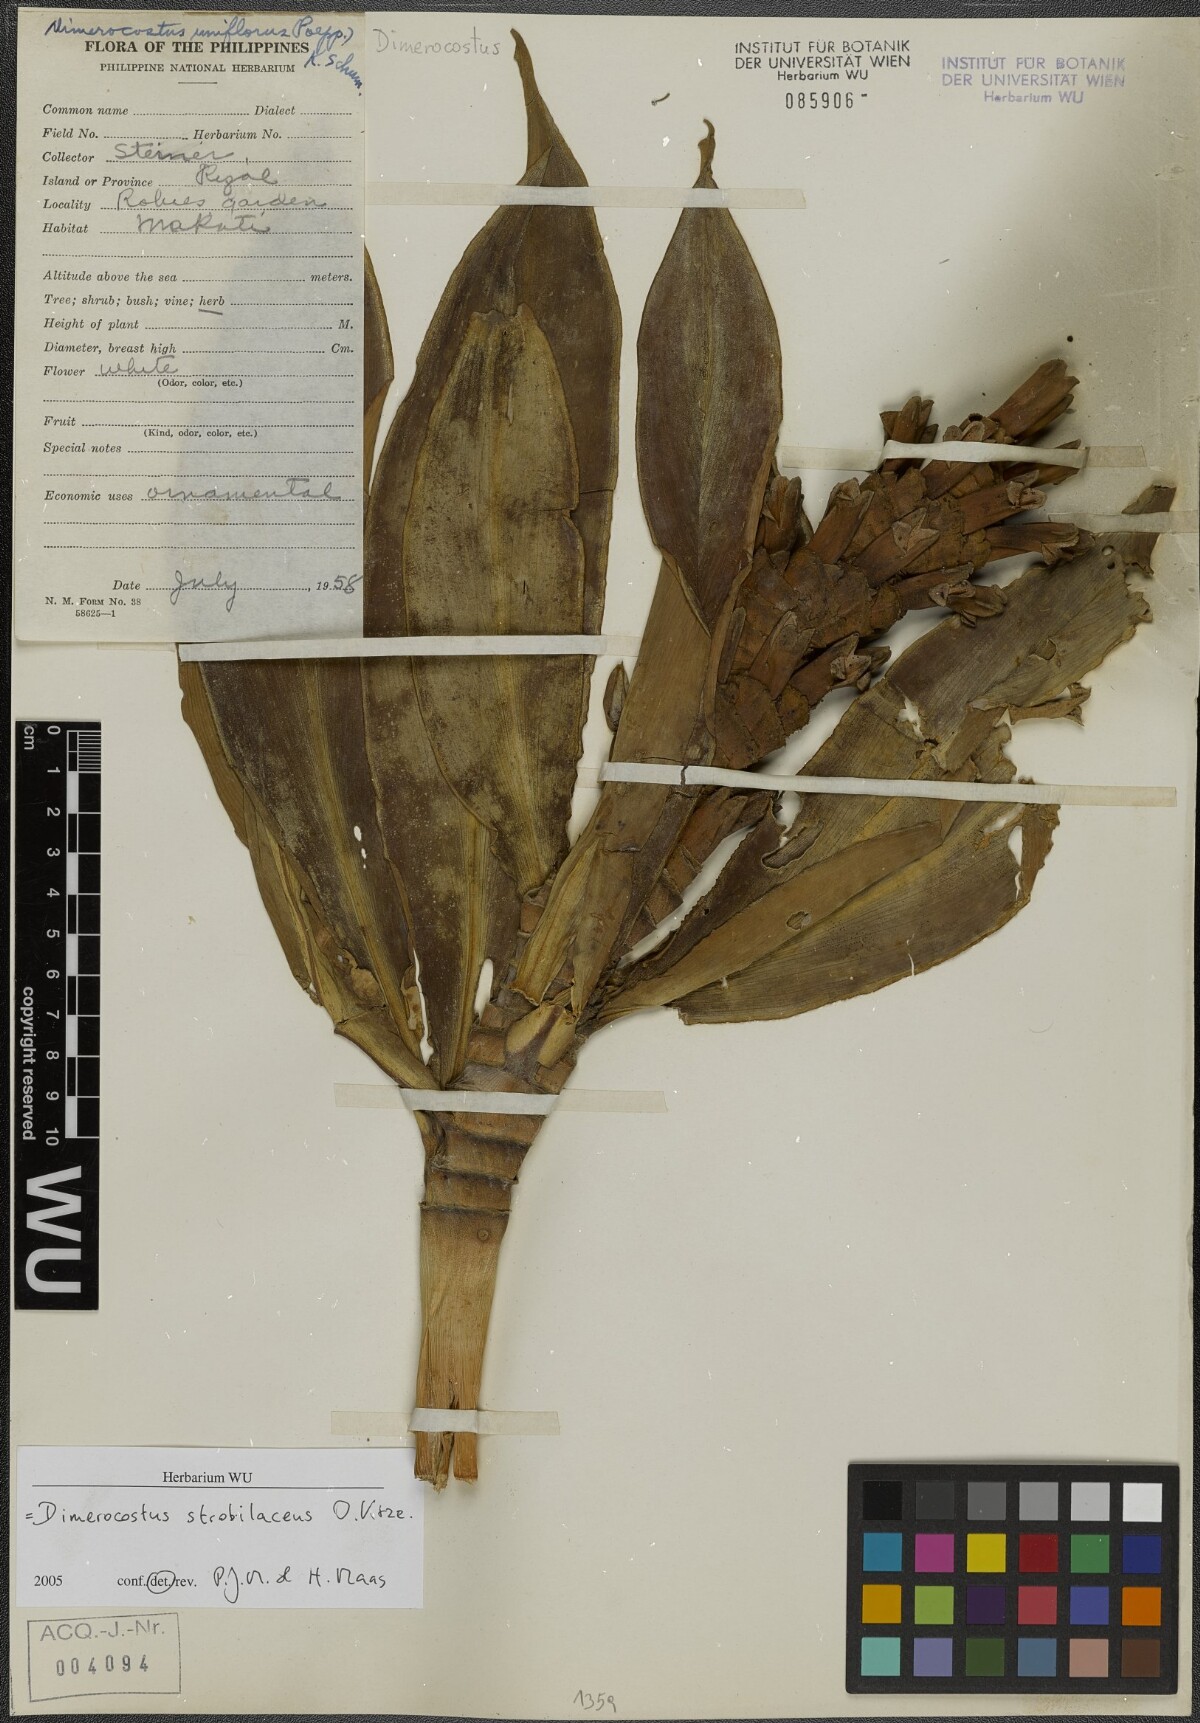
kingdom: Plantae
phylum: Tracheophyta
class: Liliopsida
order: Zingiberales
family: Costaceae
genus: Dimerocostus
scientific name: Dimerocostus strobilaceus
